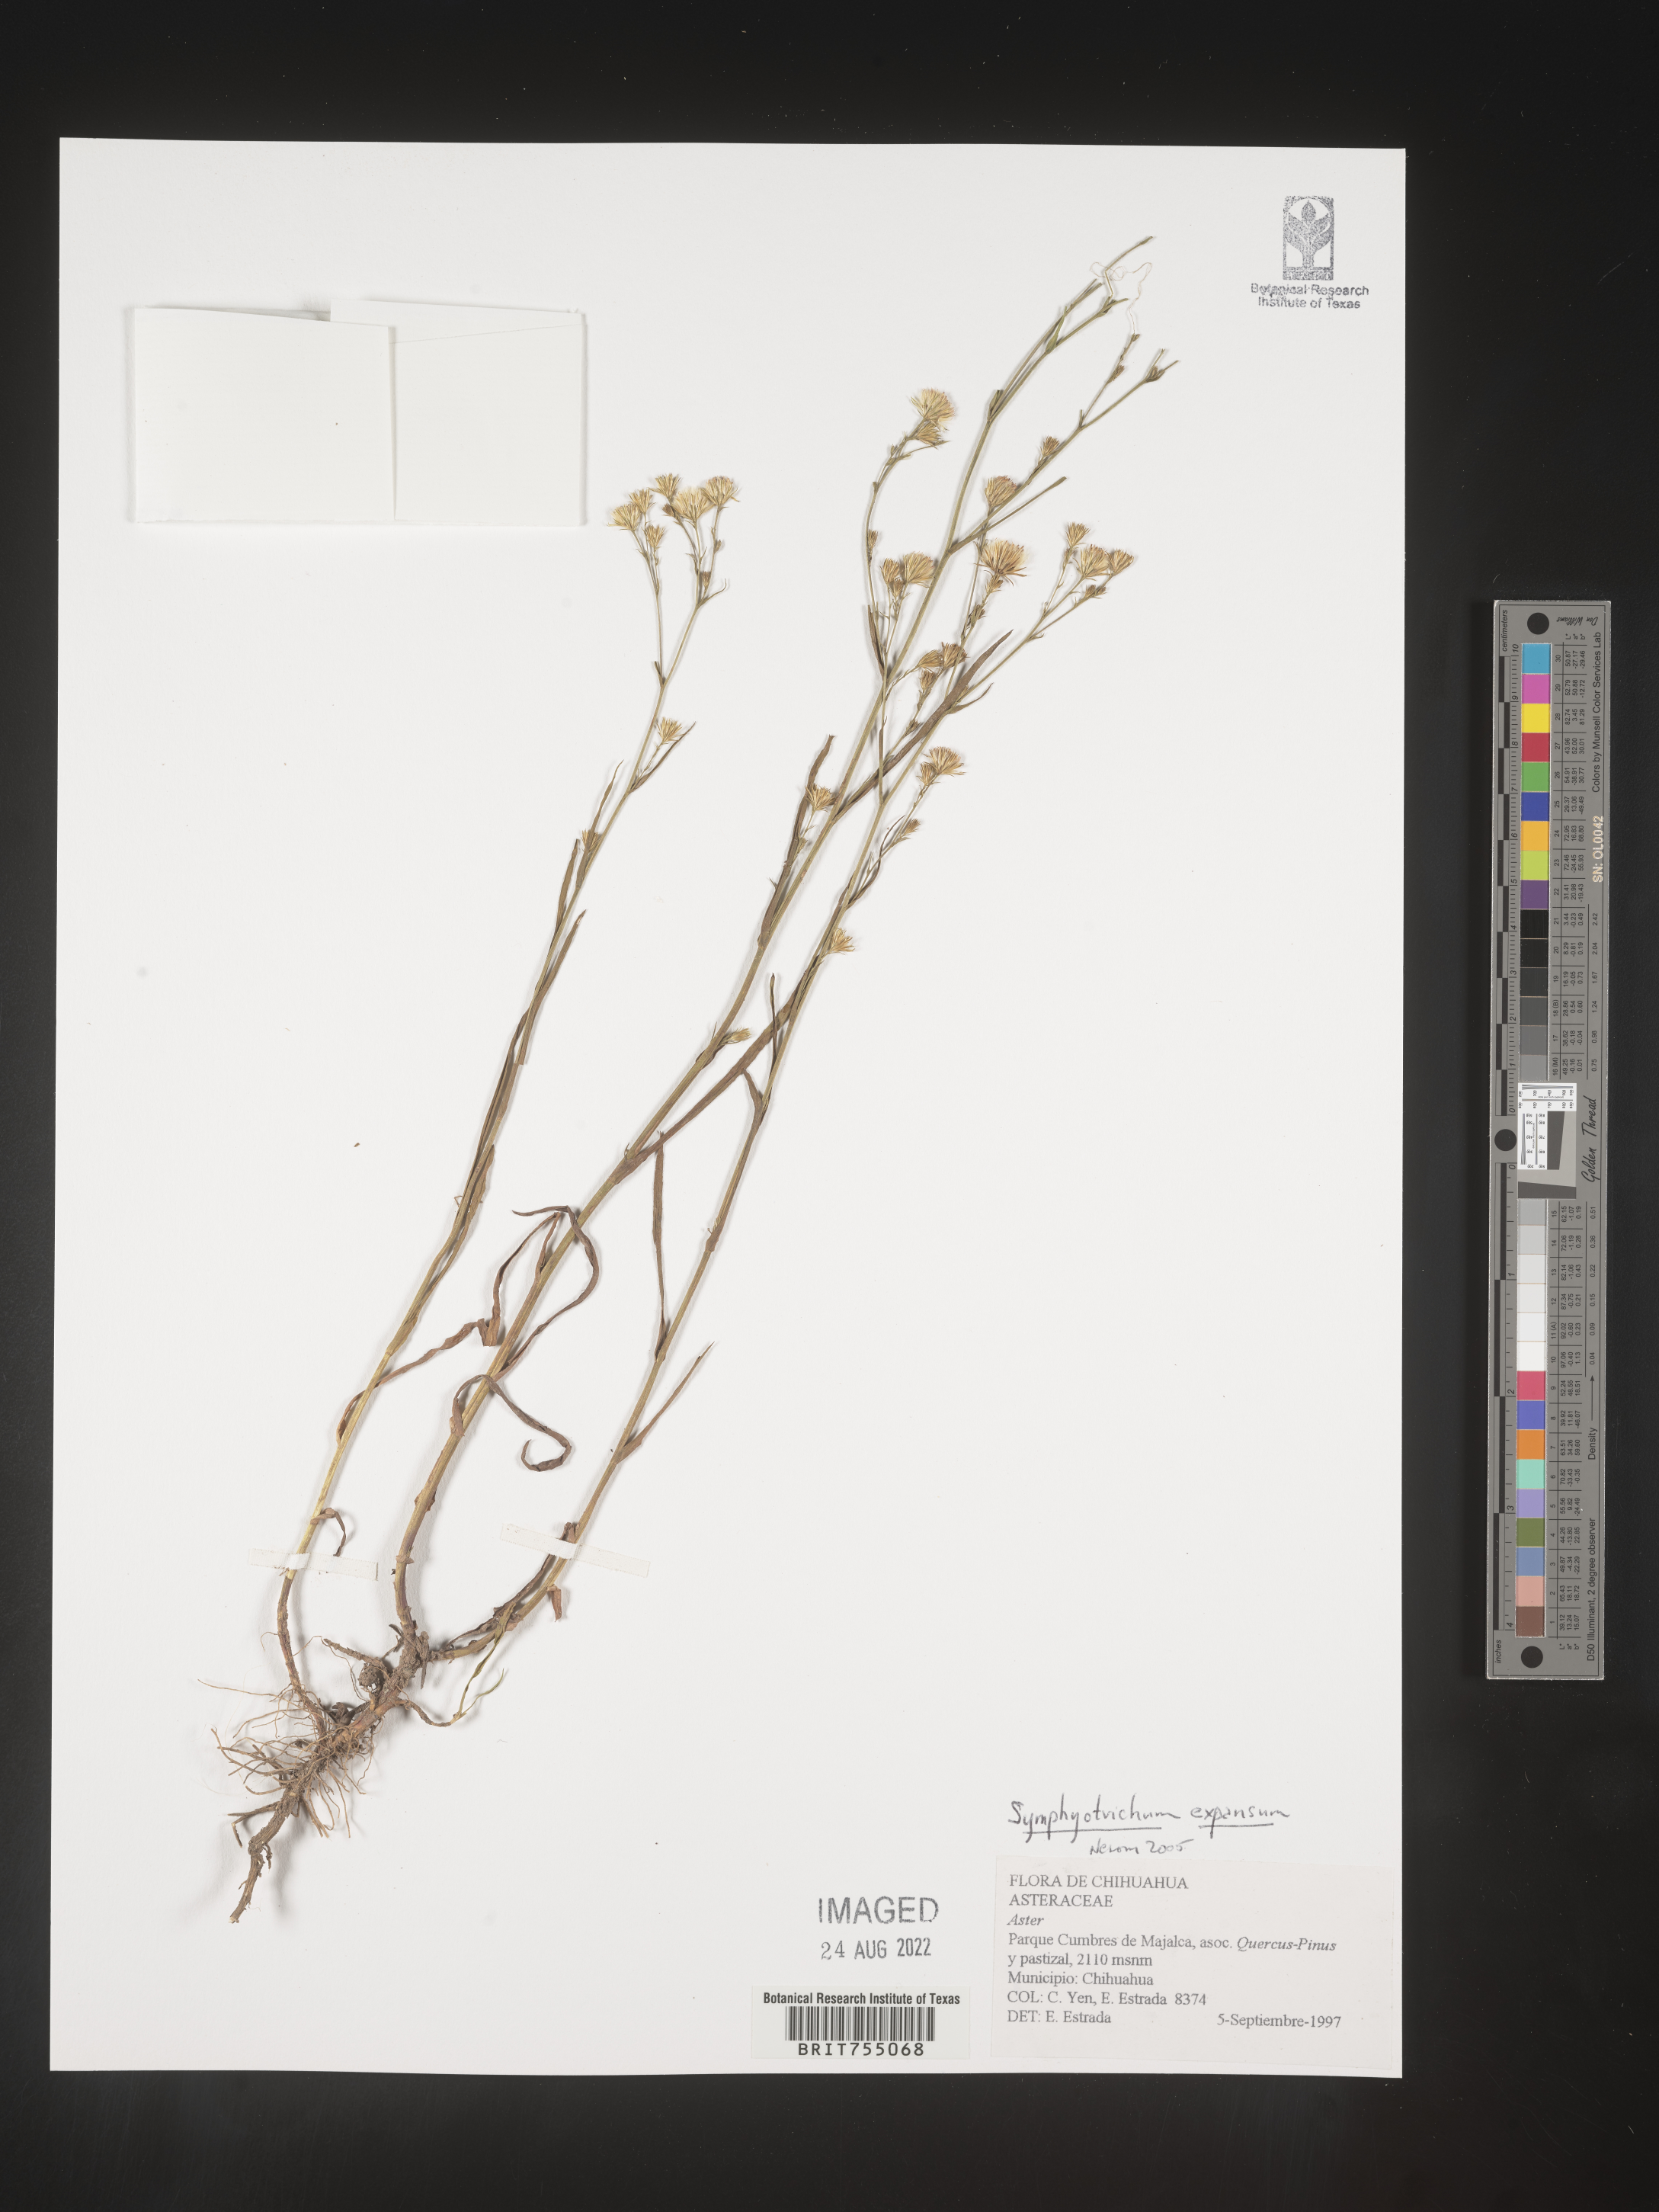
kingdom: Plantae
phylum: Tracheophyta
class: Magnoliopsida
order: Asterales
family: Asteraceae
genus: Symphyotrichum
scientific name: Symphyotrichum expansum
